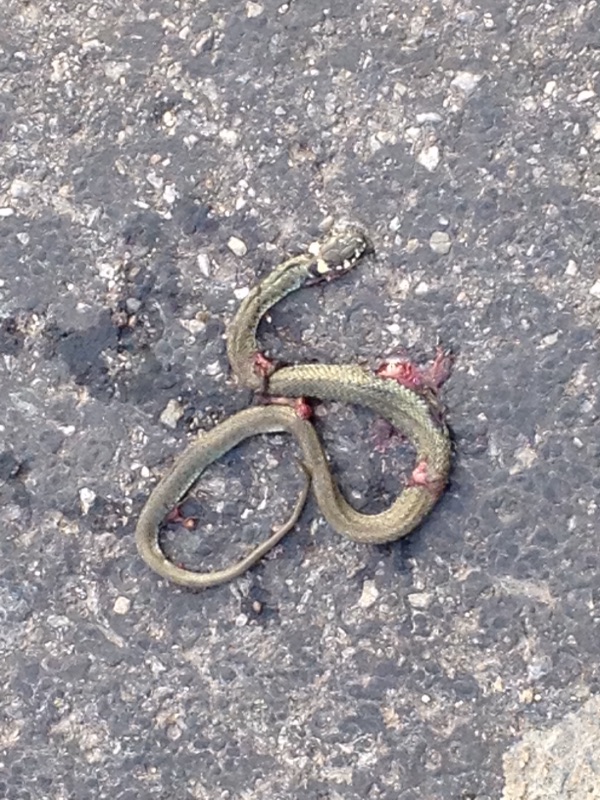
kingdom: Animalia
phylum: Chordata
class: Squamata
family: Colubridae
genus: Natrix
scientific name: Natrix natrix
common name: Grass snake
